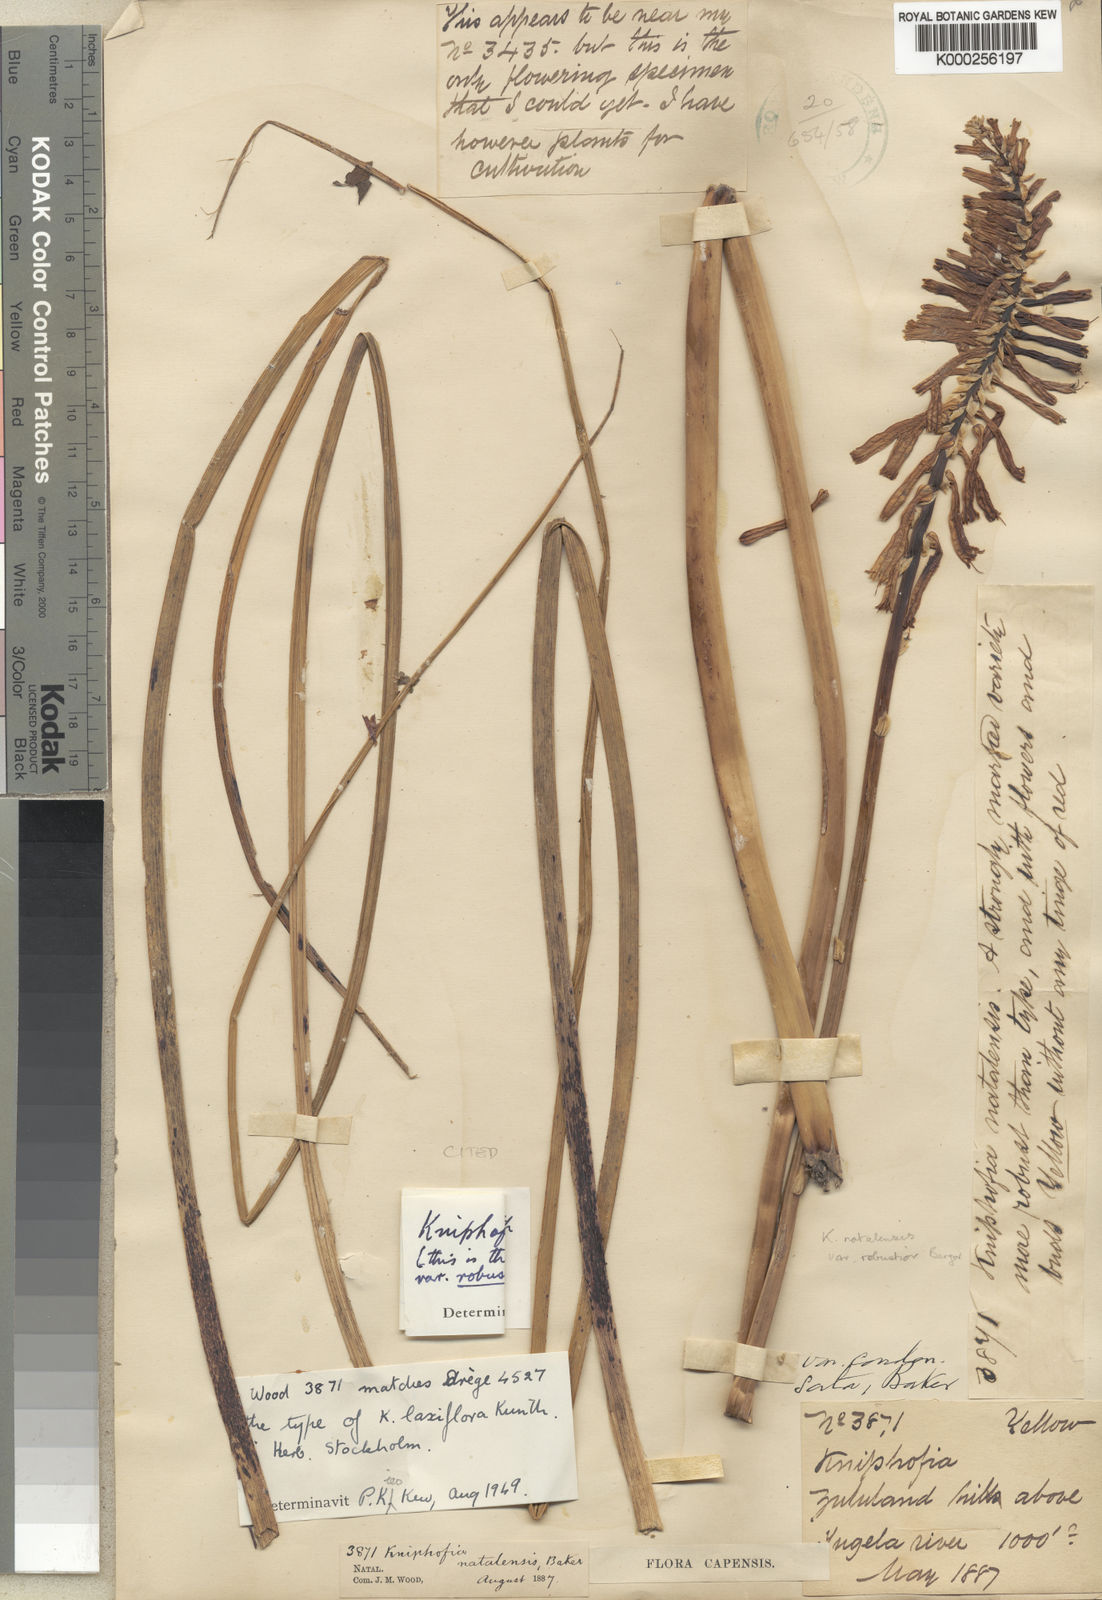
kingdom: Plantae
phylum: Tracheophyta
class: Liliopsida
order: Asparagales
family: Asphodelaceae
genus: Kniphofia
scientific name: Kniphofia laxiflora
